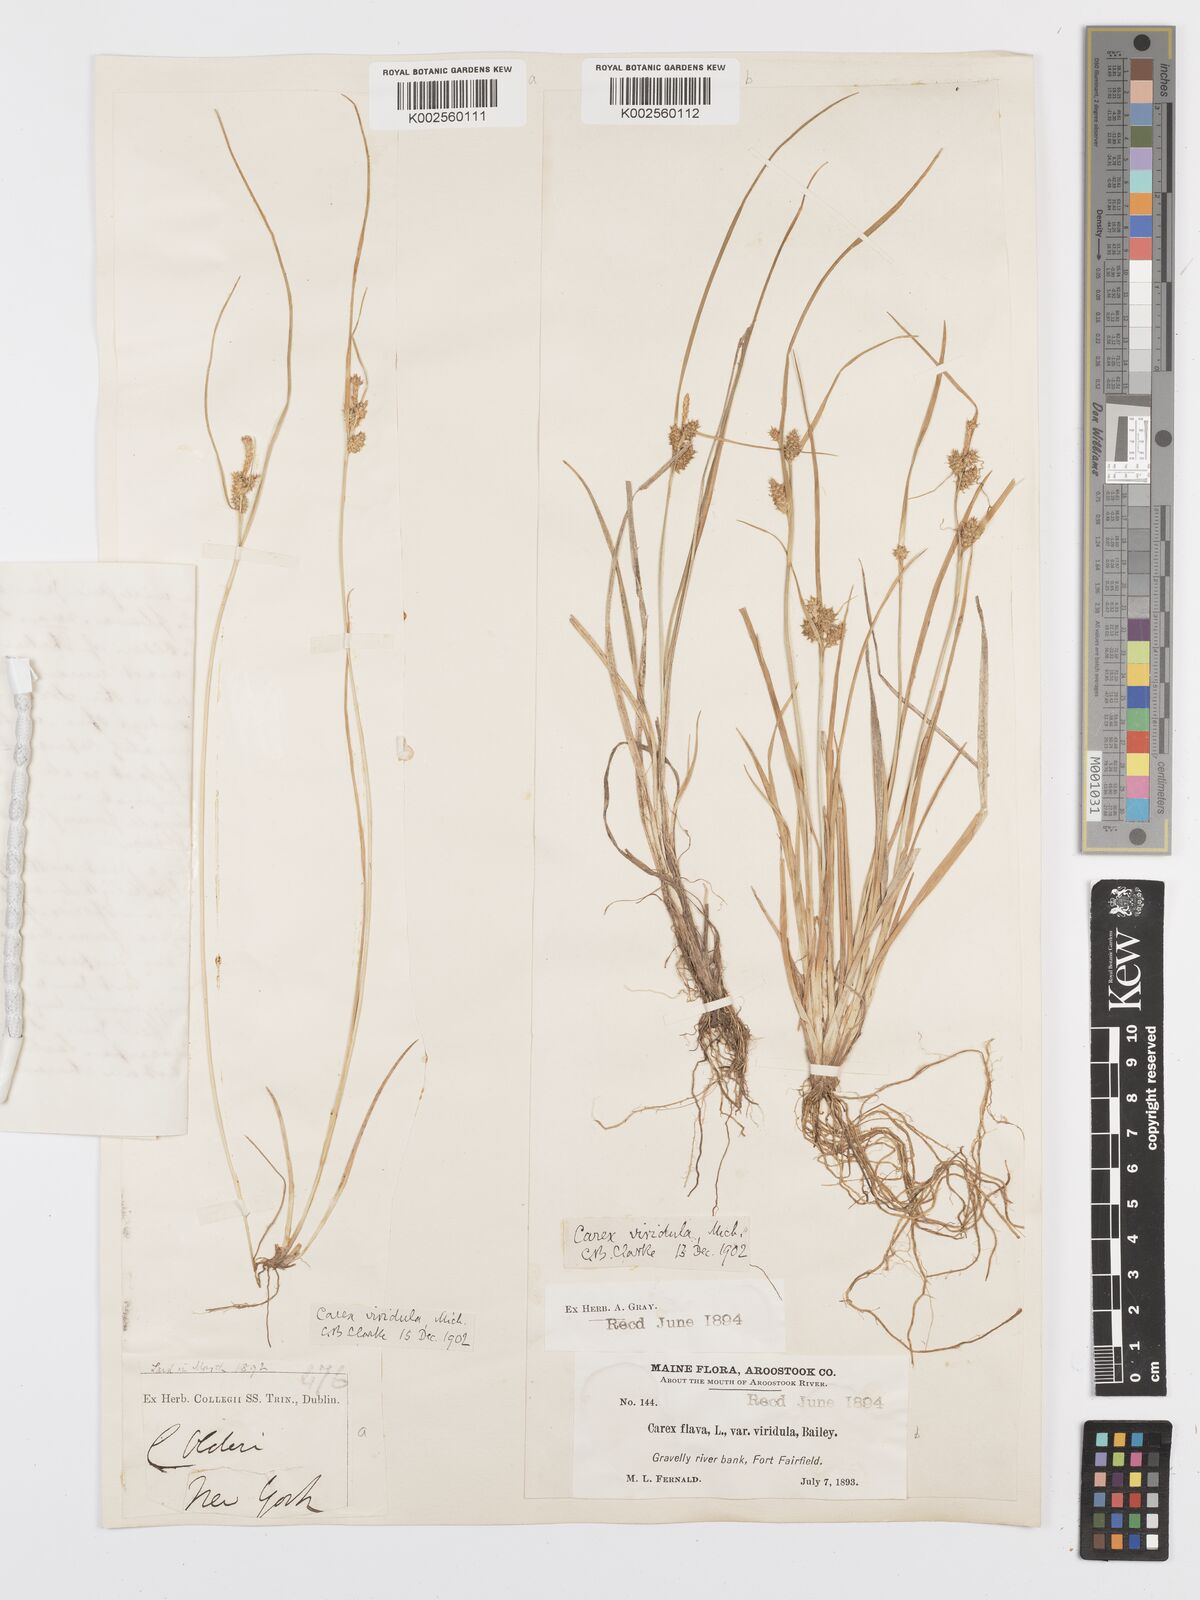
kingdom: Plantae
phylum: Tracheophyta
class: Liliopsida
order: Poales
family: Cyperaceae
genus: Carex
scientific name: Carex oederi
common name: Common & small-fruited yellow-sedge
